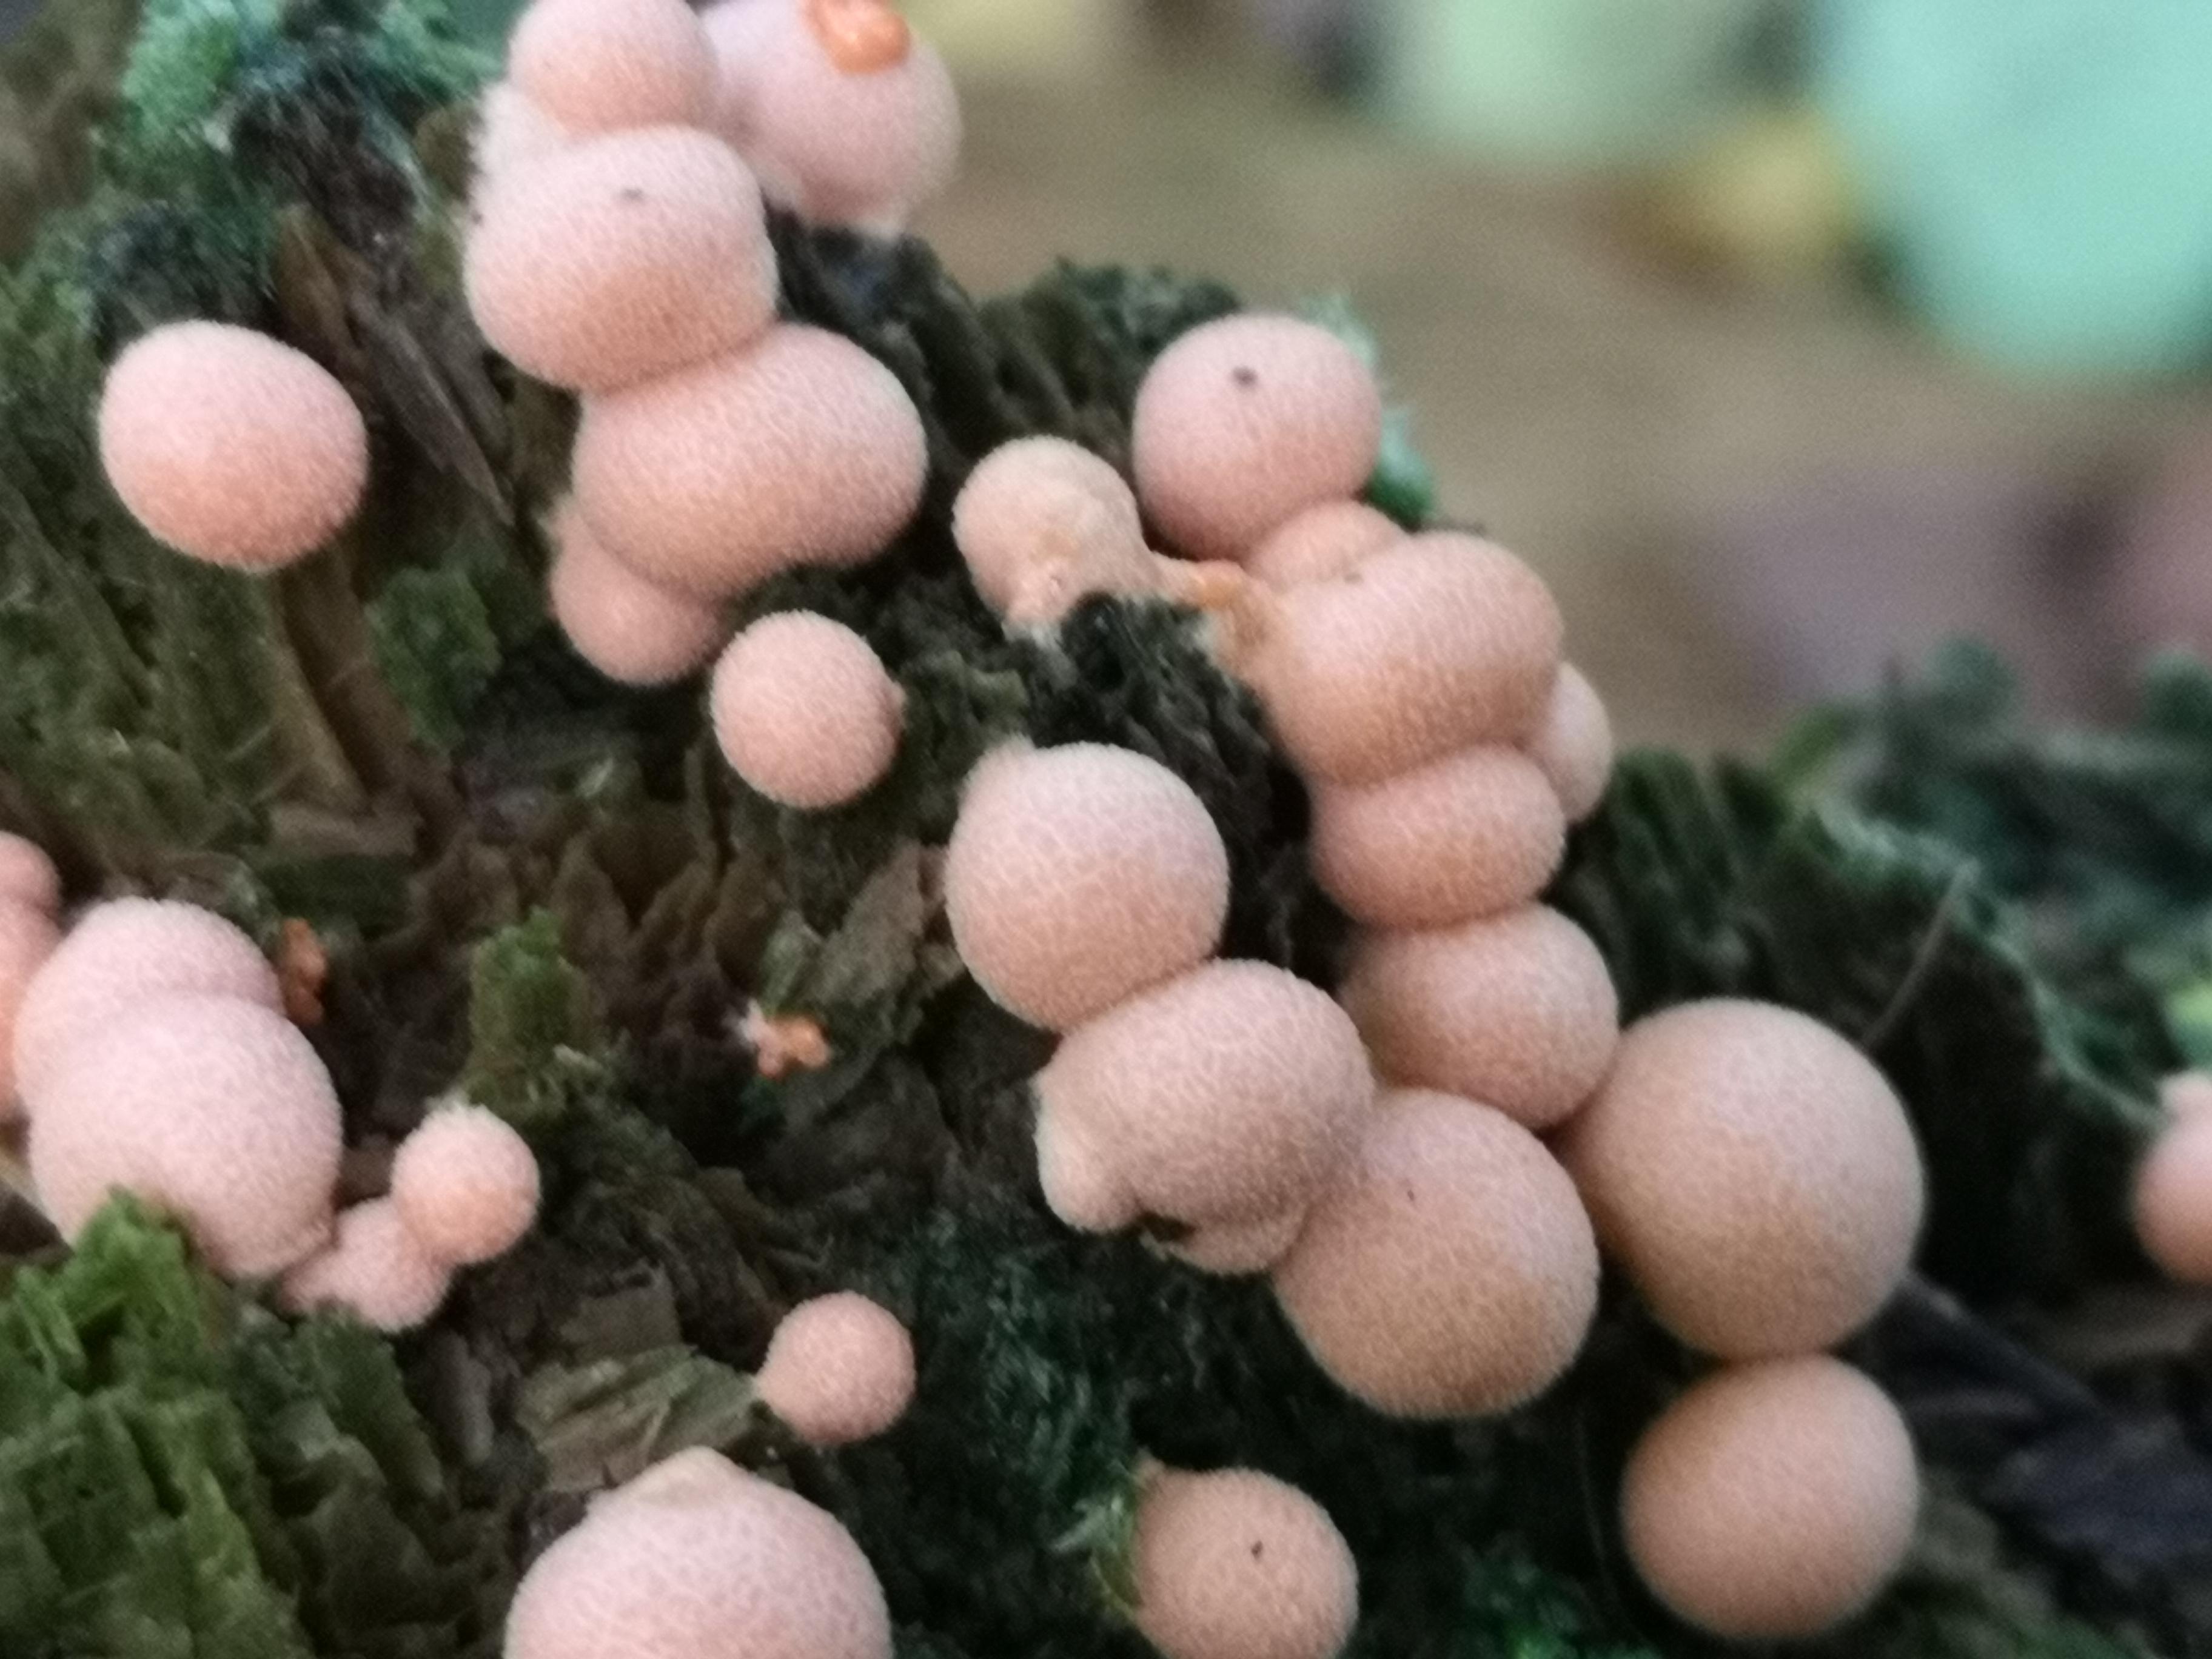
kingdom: Protozoa
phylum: Mycetozoa
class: Myxomycetes
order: Cribrariales
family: Tubiferaceae
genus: Lycogala
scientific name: Lycogala epidendrum
